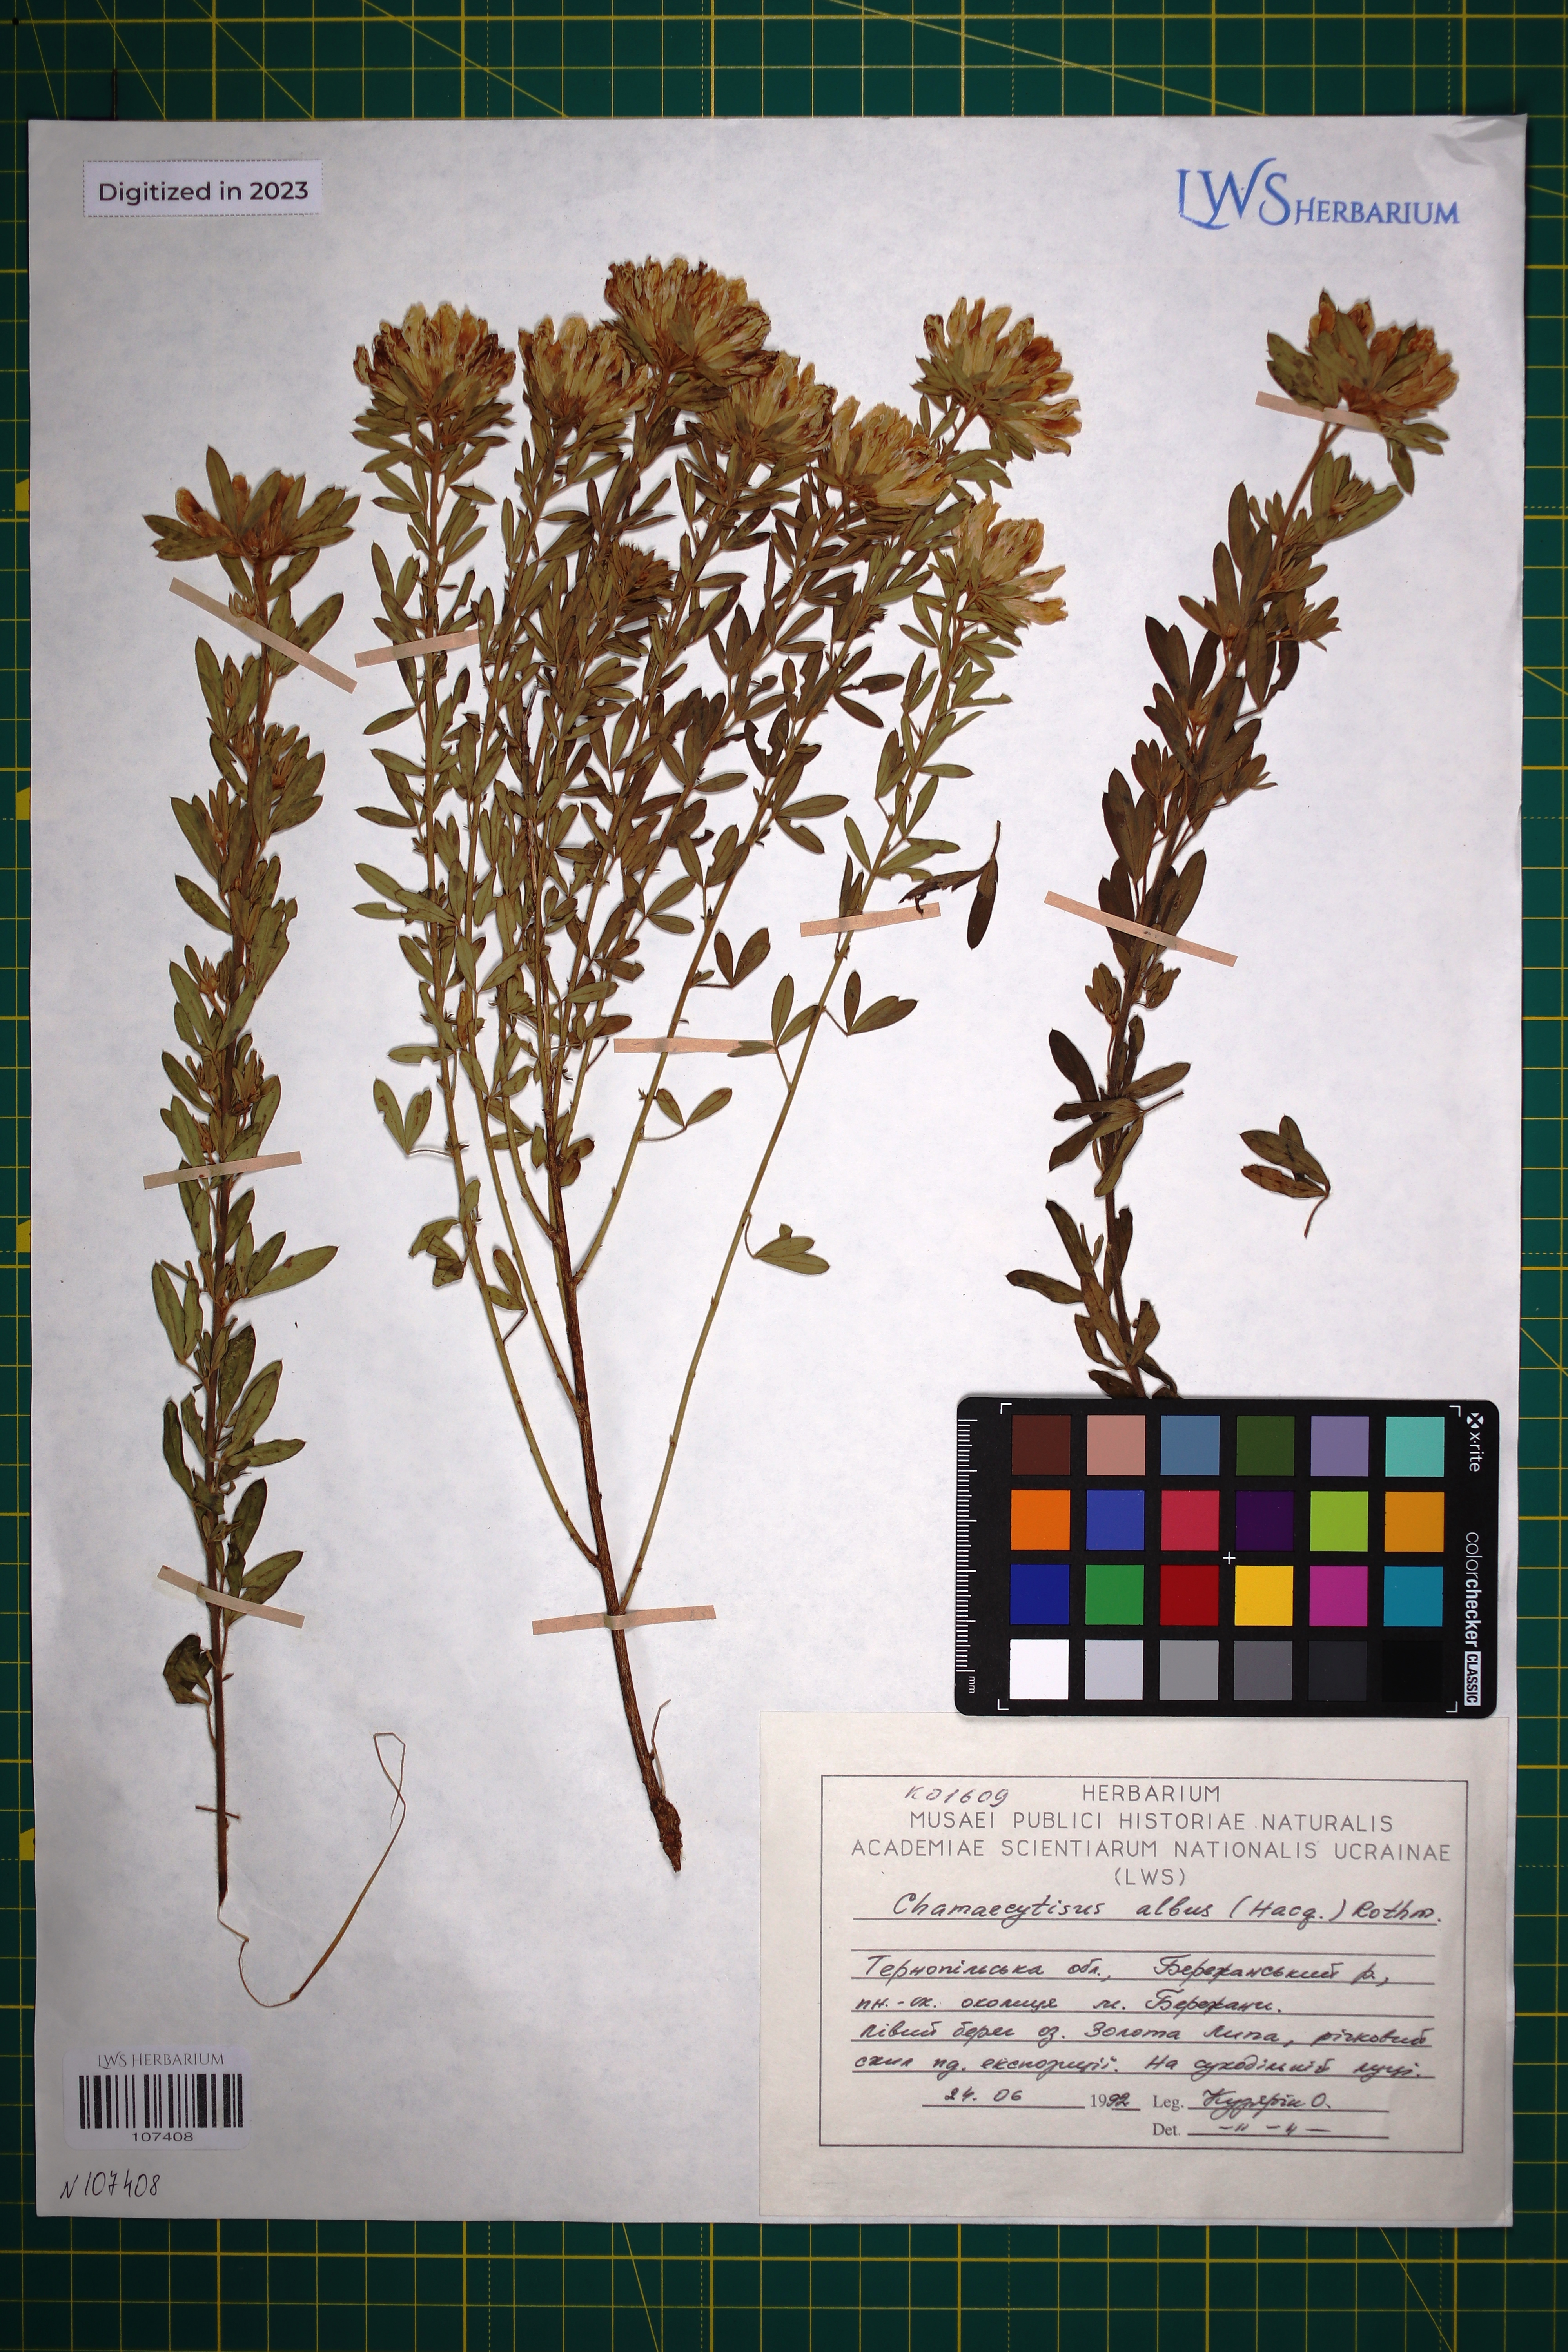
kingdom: Plantae
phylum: Tracheophyta
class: Magnoliopsida
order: Fabales
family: Fabaceae
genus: Chamaecytisus
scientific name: Chamaecytisus albus
